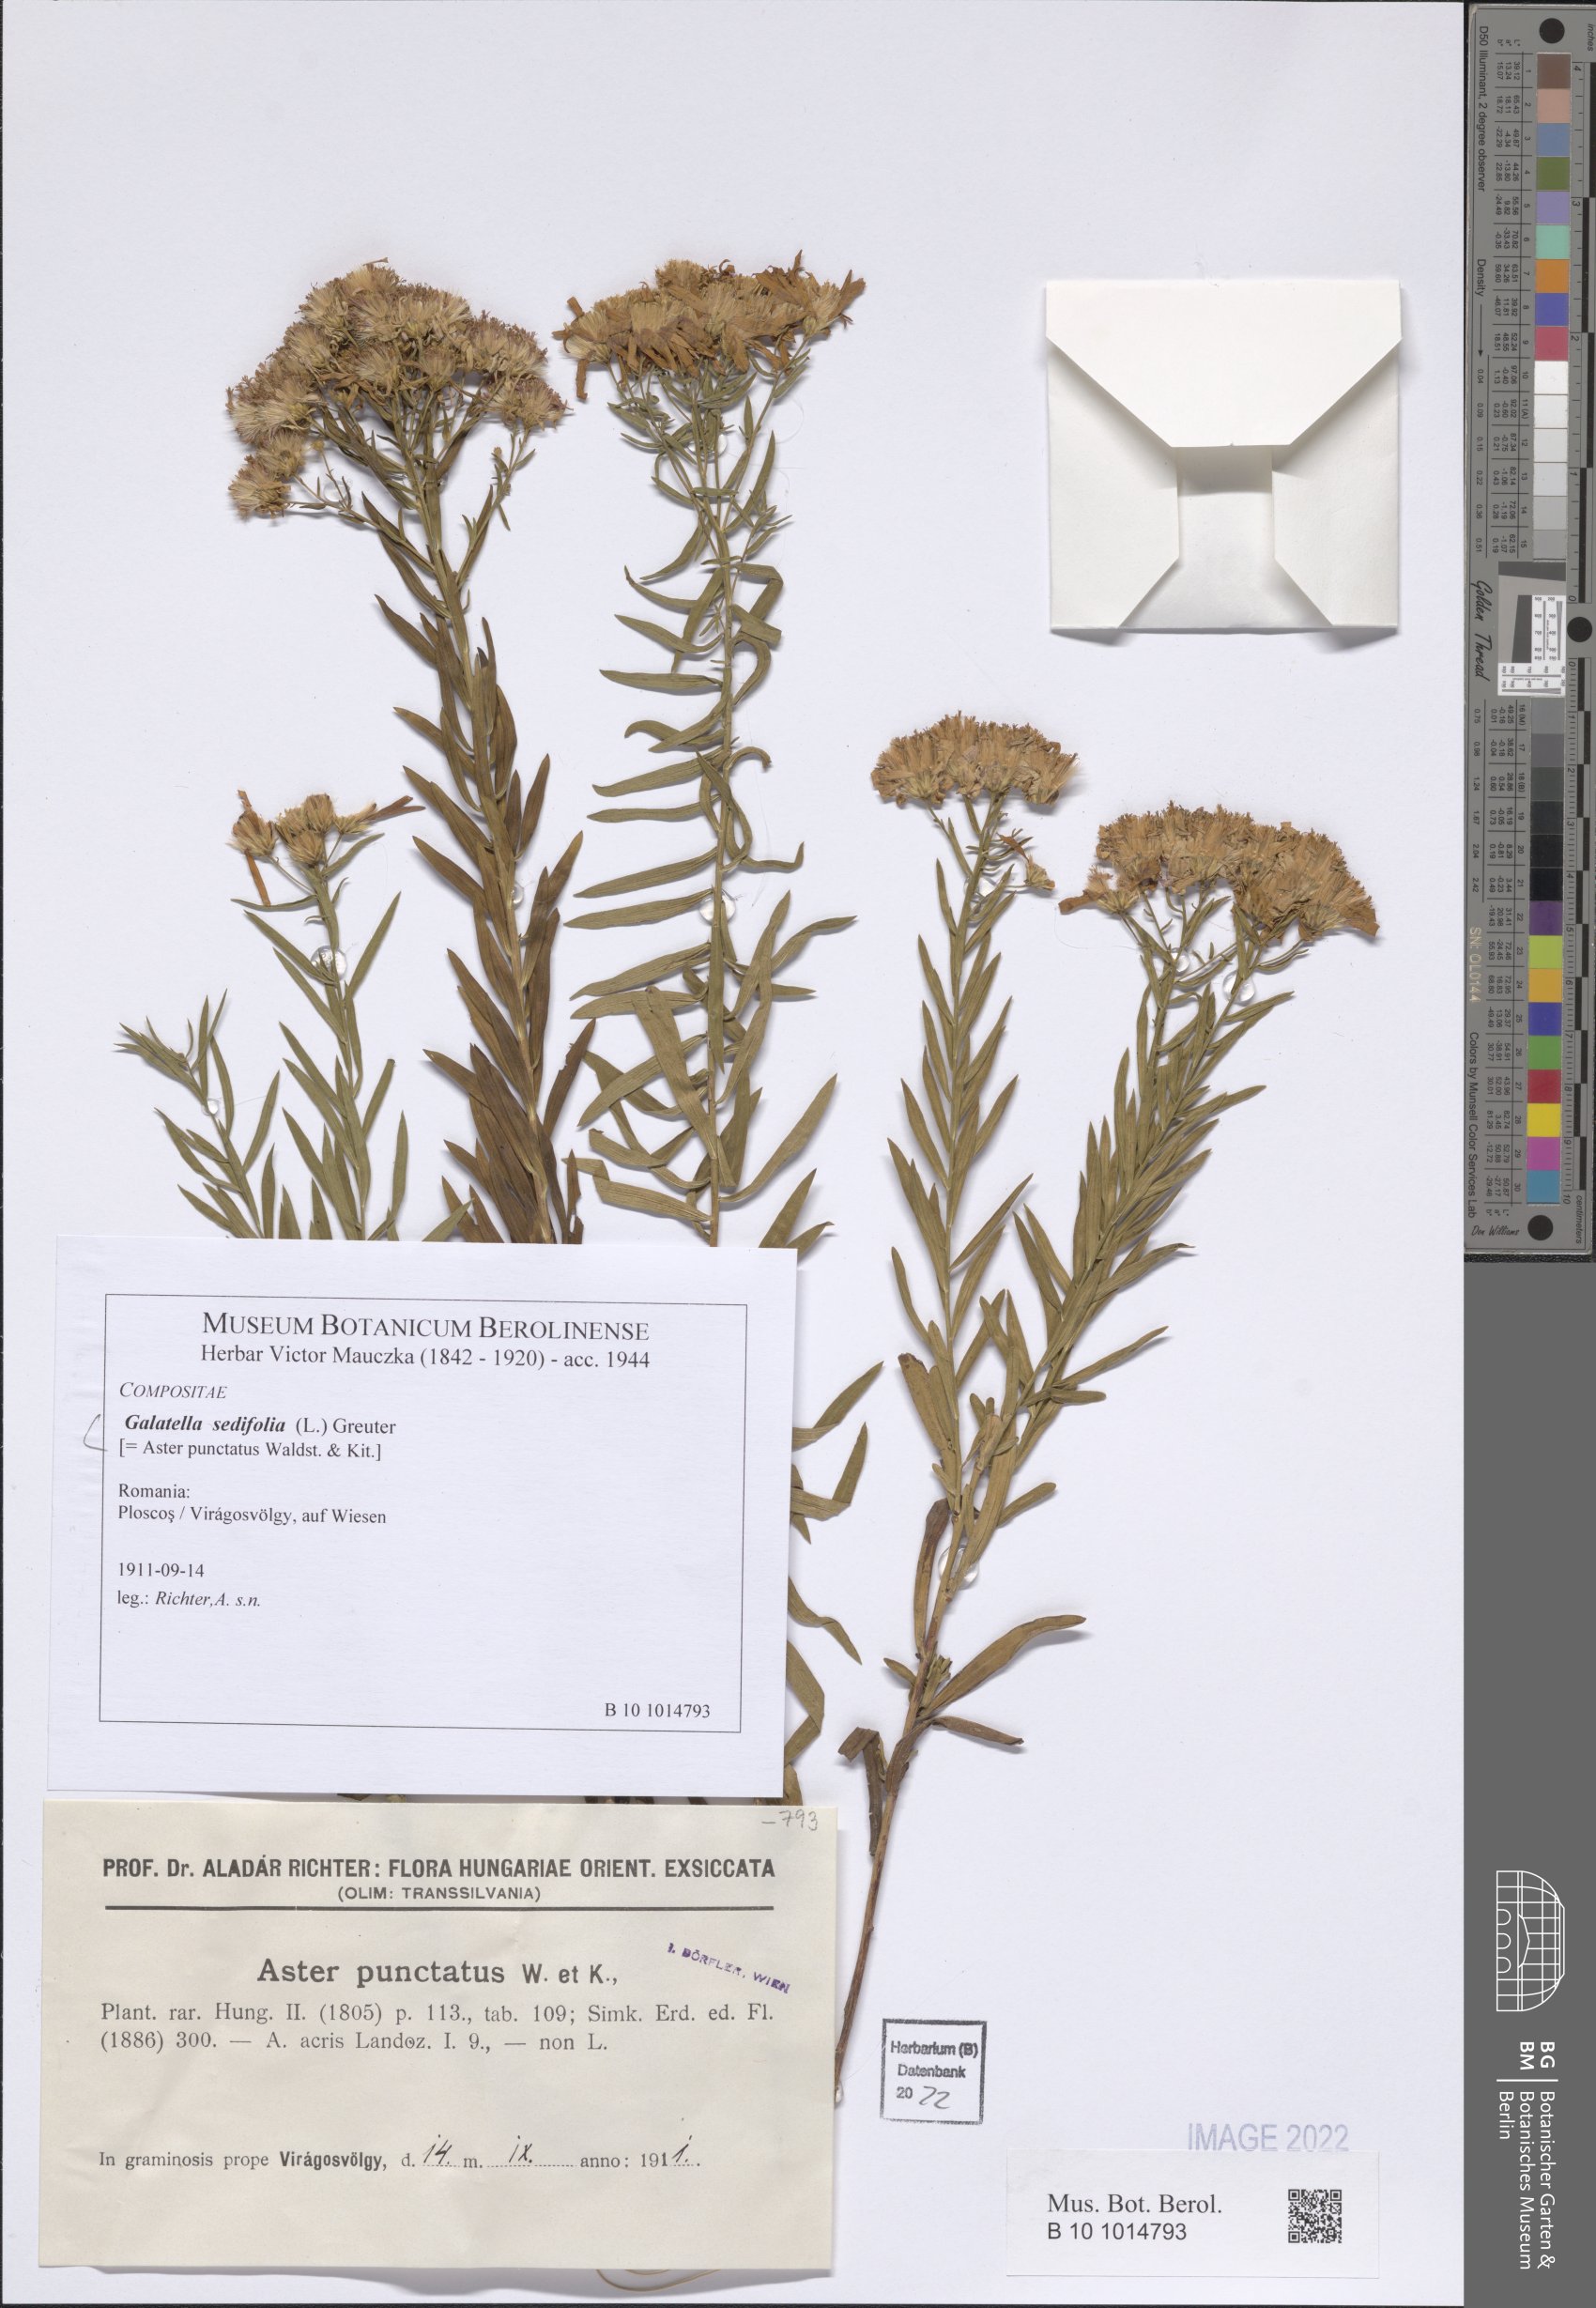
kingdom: Plantae
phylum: Tracheophyta
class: Magnoliopsida
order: Asterales
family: Asteraceae
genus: Galatella
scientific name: Galatella sedifolia
